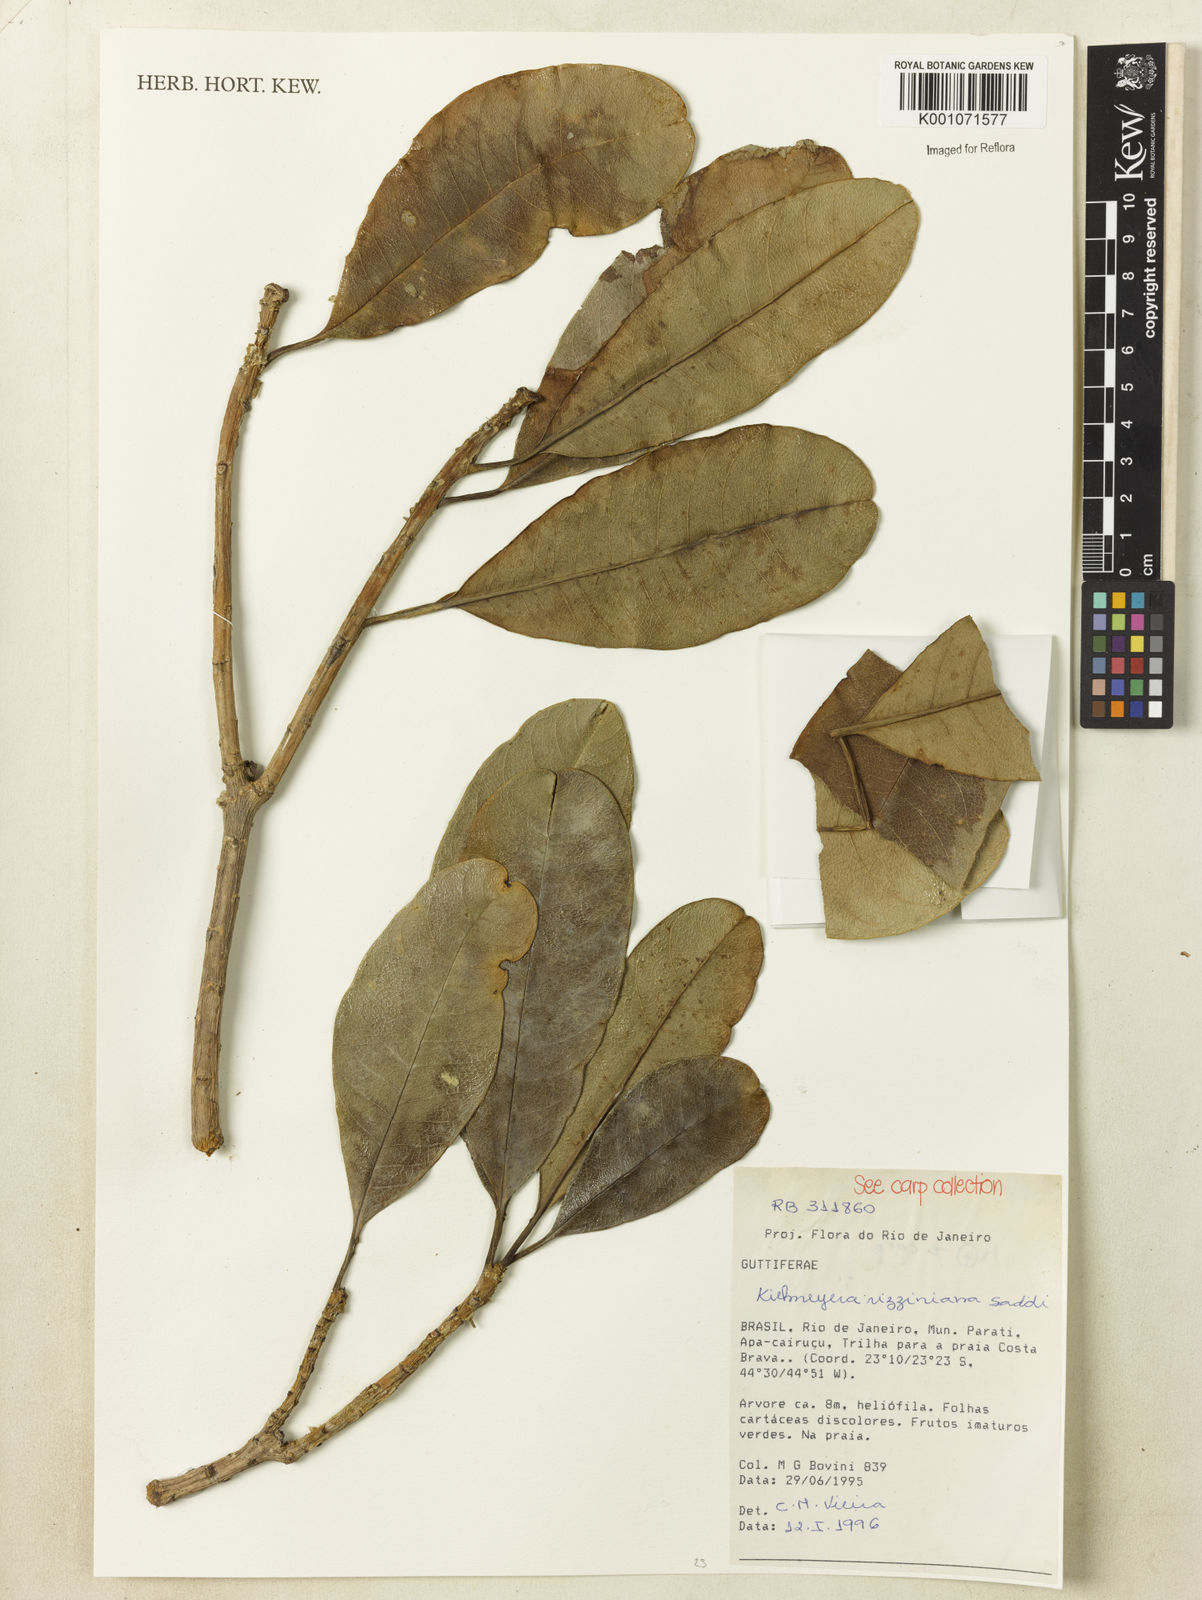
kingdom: Plantae
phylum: Tracheophyta
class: Magnoliopsida
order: Malpighiales
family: Calophyllaceae
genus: Kielmeyera
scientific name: Kielmeyera rizziniana
